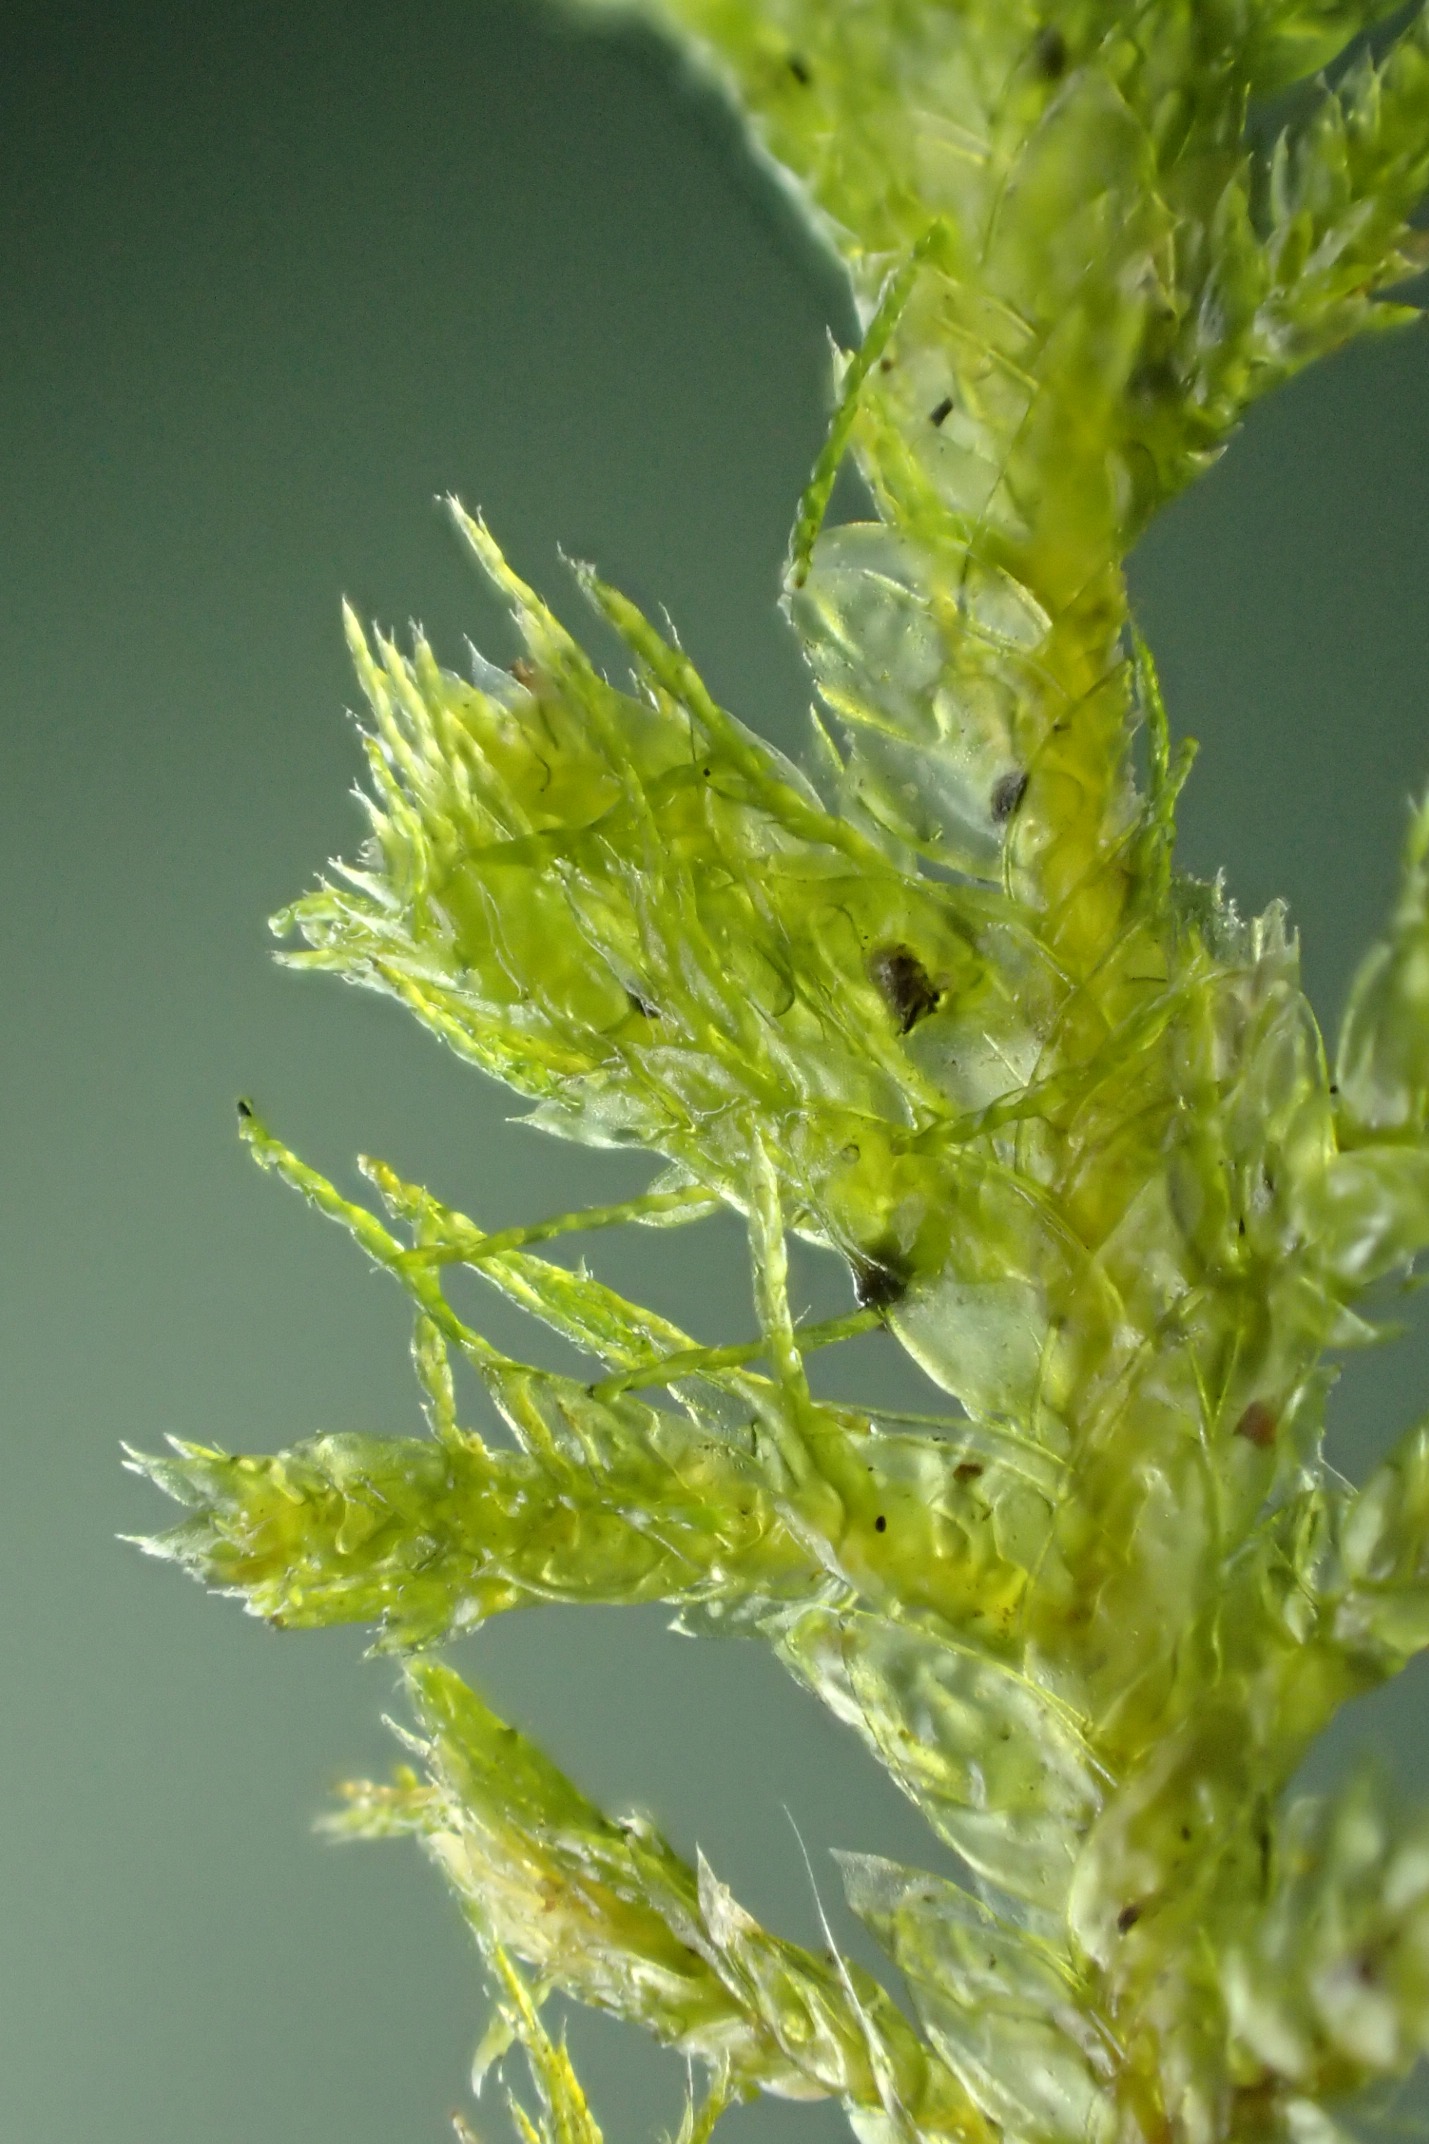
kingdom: Plantae
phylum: Bryophyta
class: Bryopsida
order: Hypnales
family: Neckeraceae
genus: Neckera
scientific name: Neckera pumila
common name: Lav fladmos
